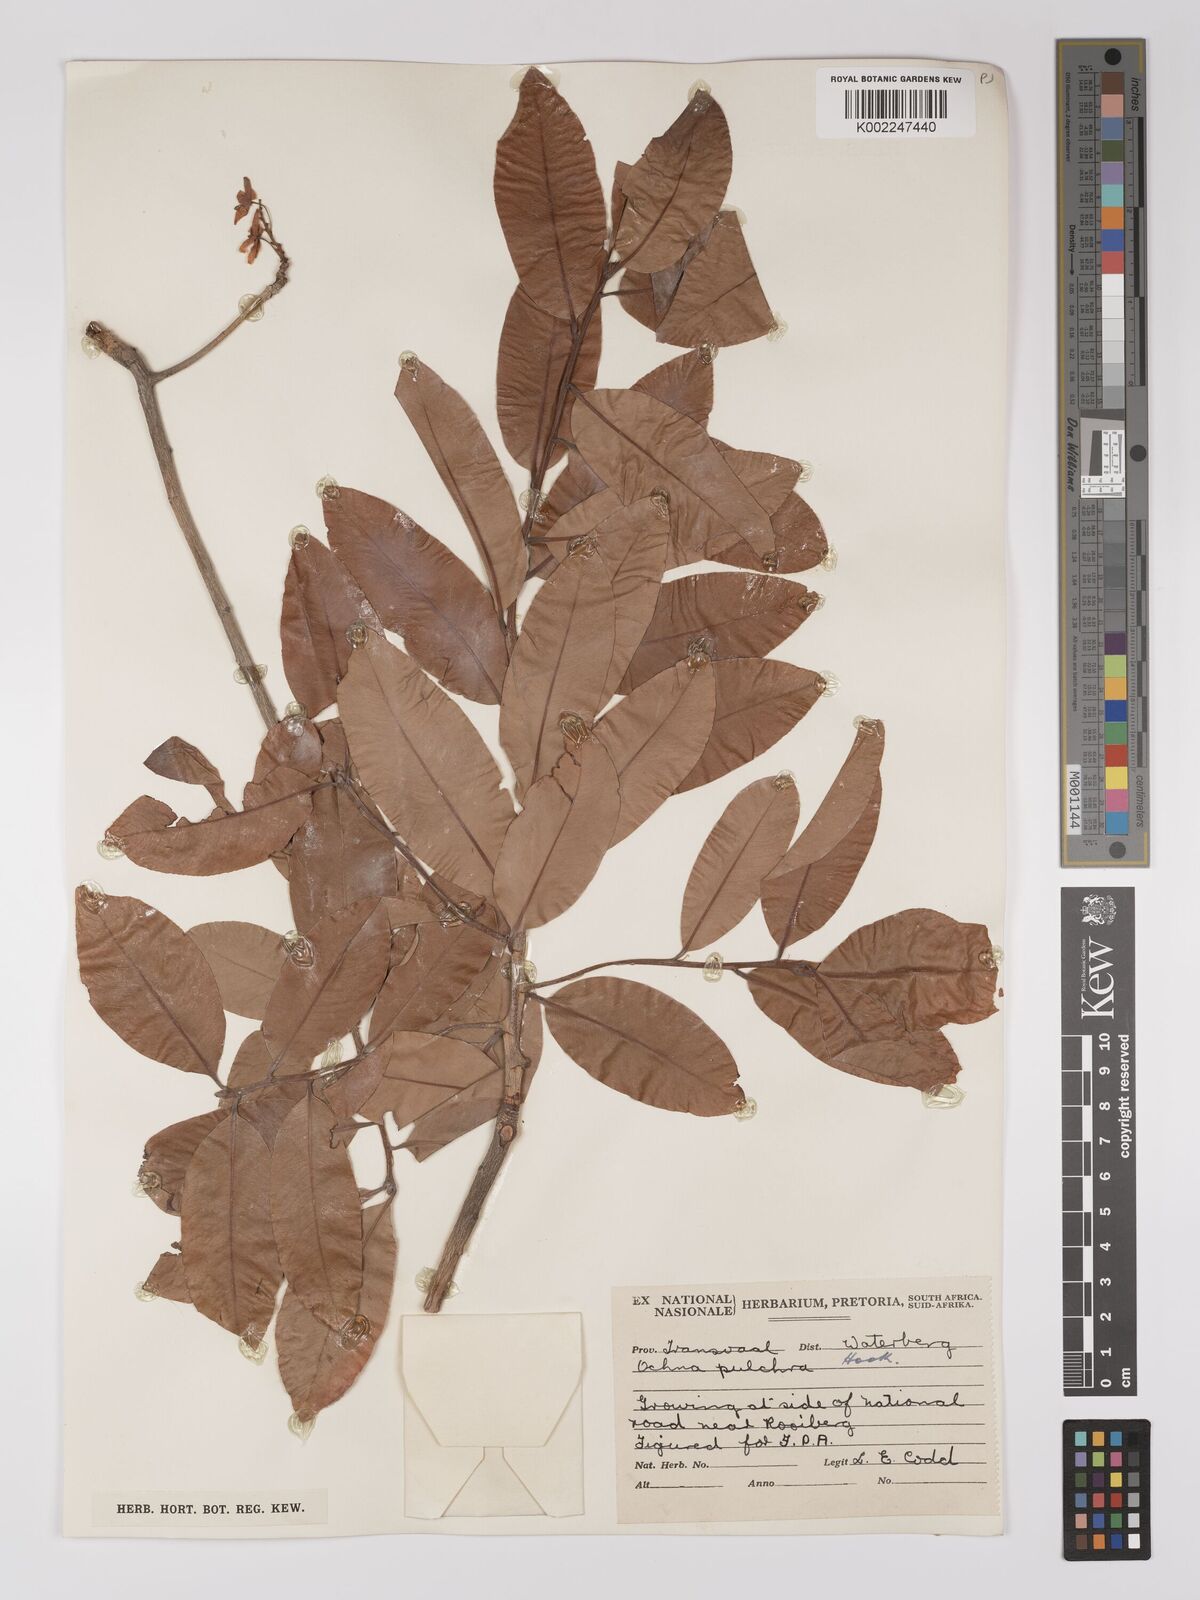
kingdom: Plantae
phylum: Tracheophyta
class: Magnoliopsida
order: Malpighiales
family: Ochnaceae
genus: Ochna
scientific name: Ochna pulchra
